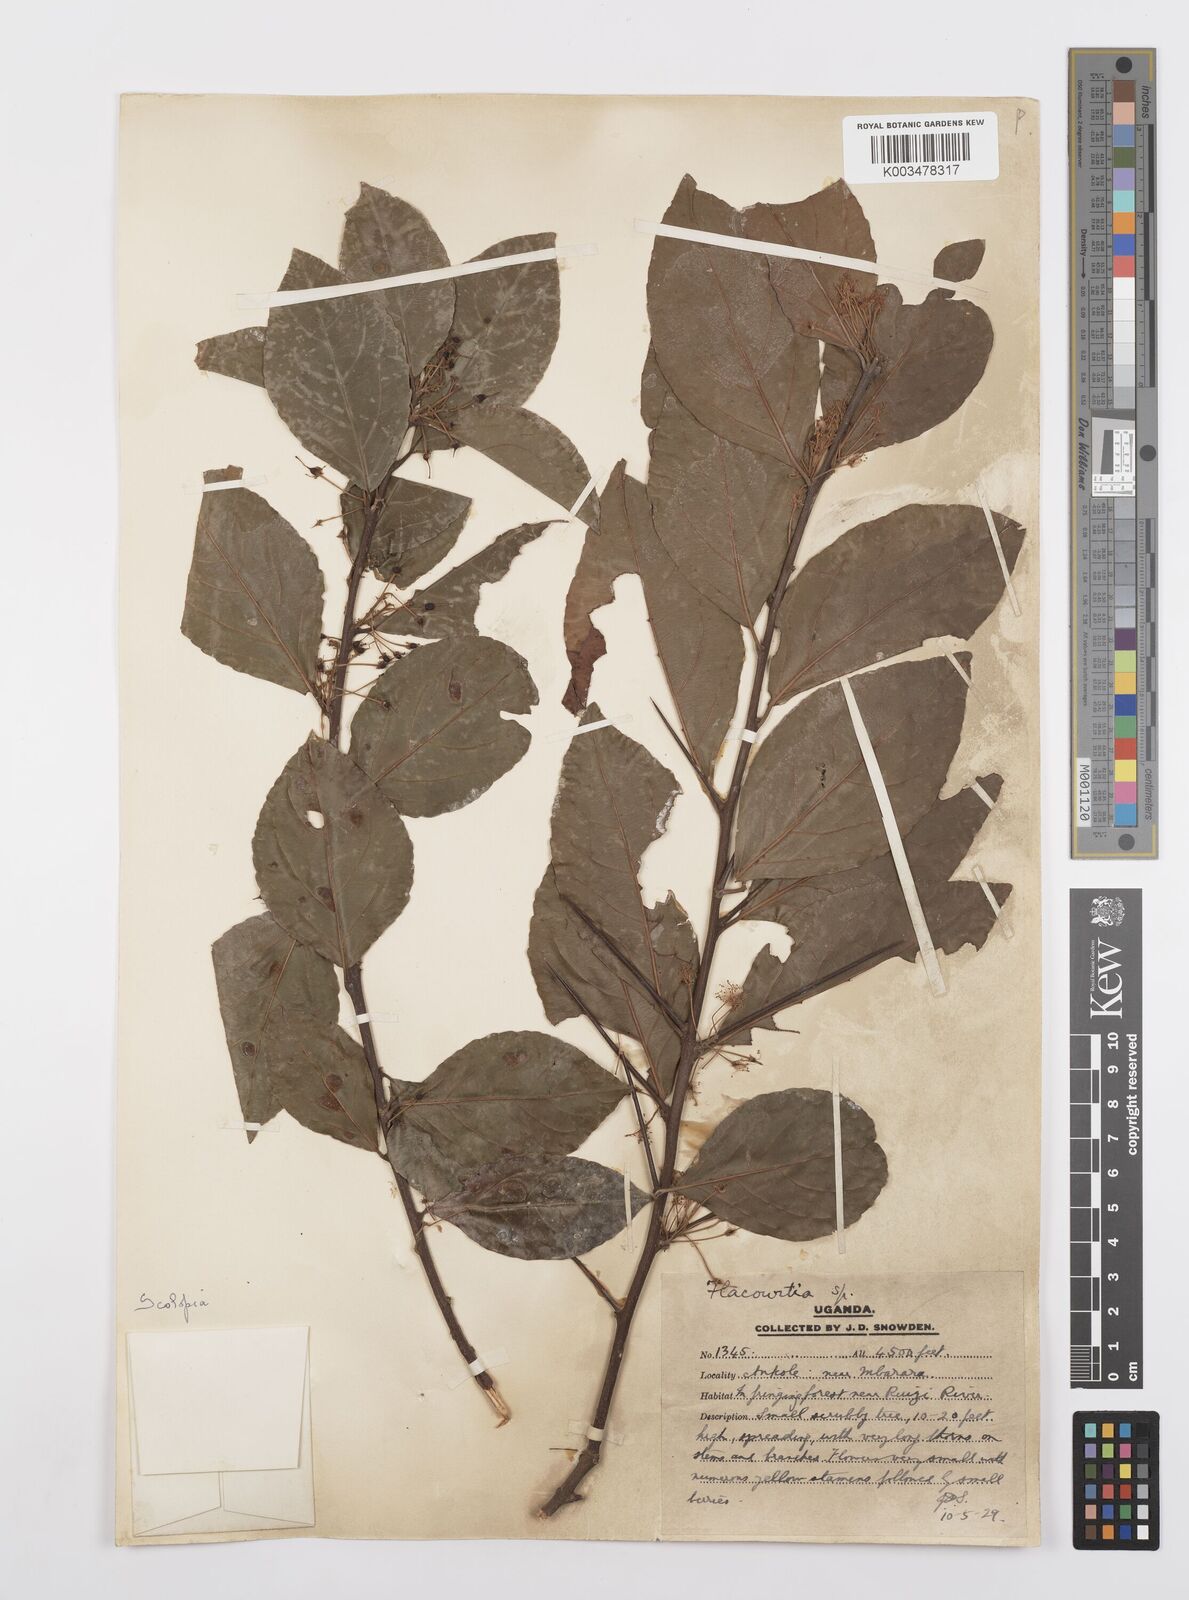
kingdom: Plantae
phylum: Tracheophyta
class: Magnoliopsida
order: Malpighiales
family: Salicaceae
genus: Scolopia
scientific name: Scolopia rhamniphylla
